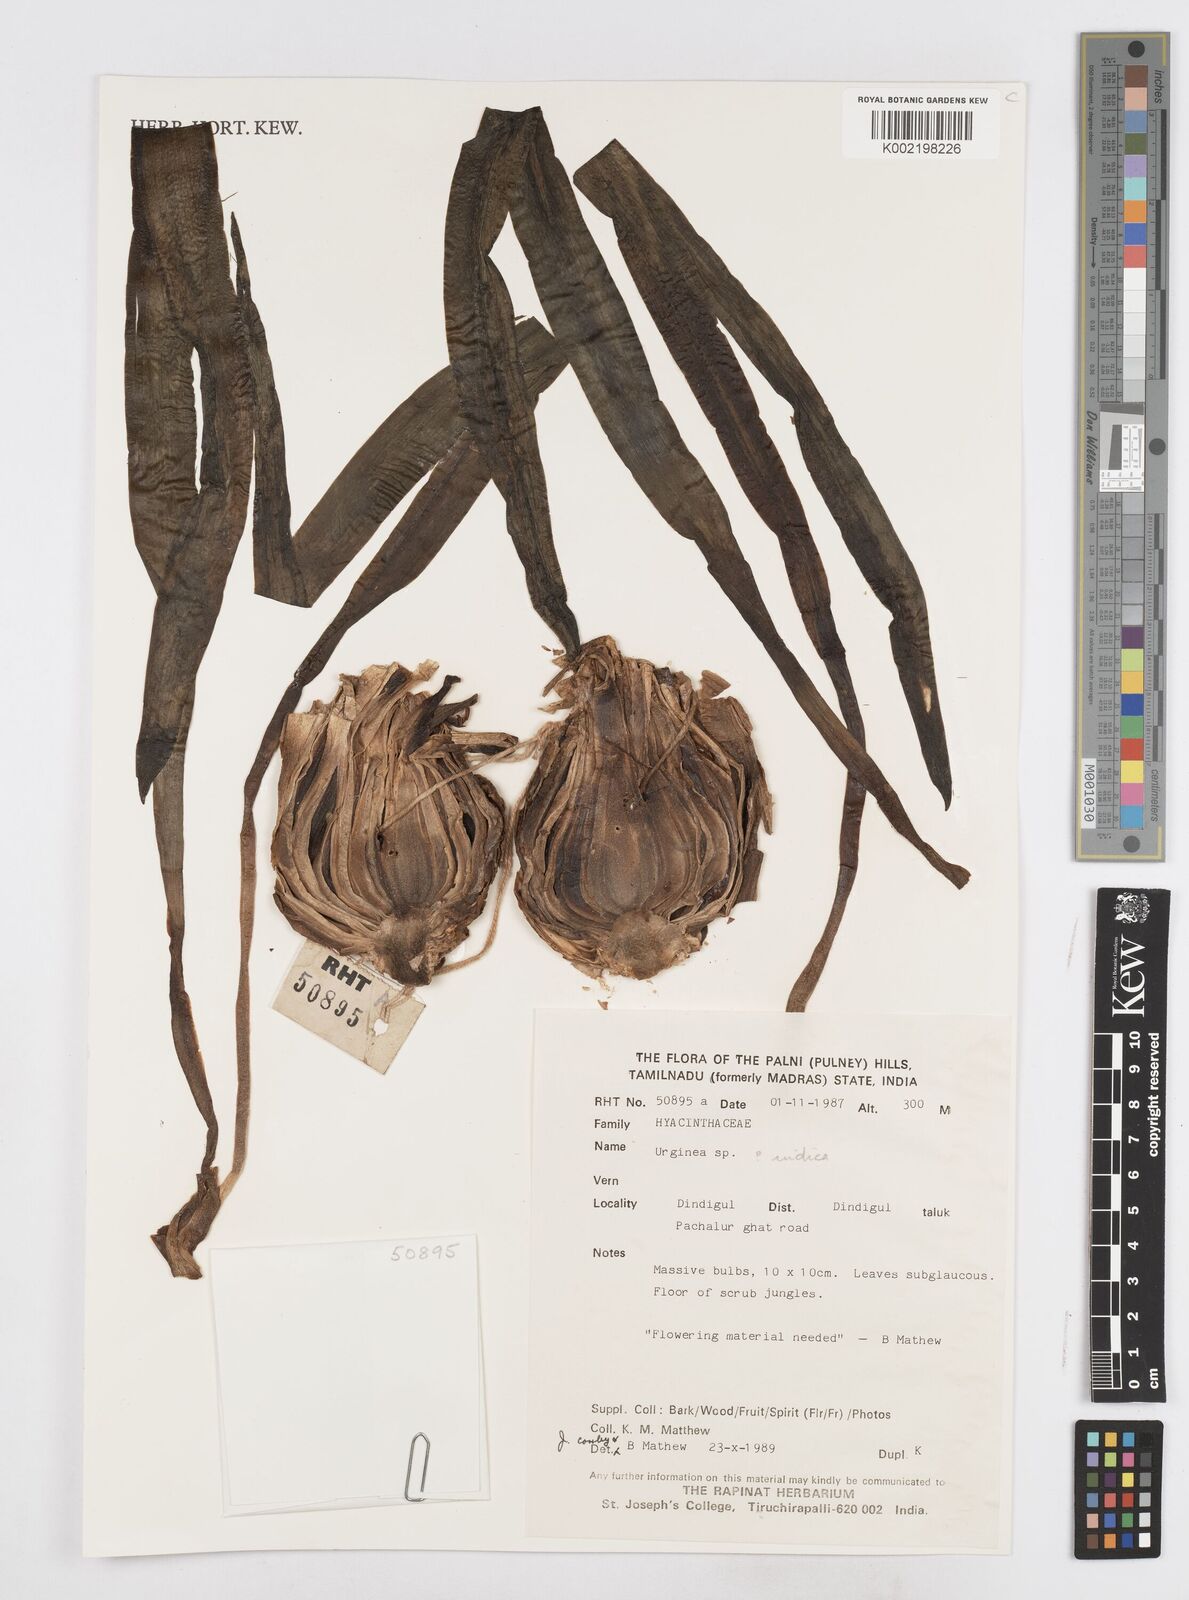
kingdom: Plantae
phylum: Tracheophyta
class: Liliopsida
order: Asparagales
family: Asparagaceae
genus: Drimia
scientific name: Drimia indica
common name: Indian-squill
